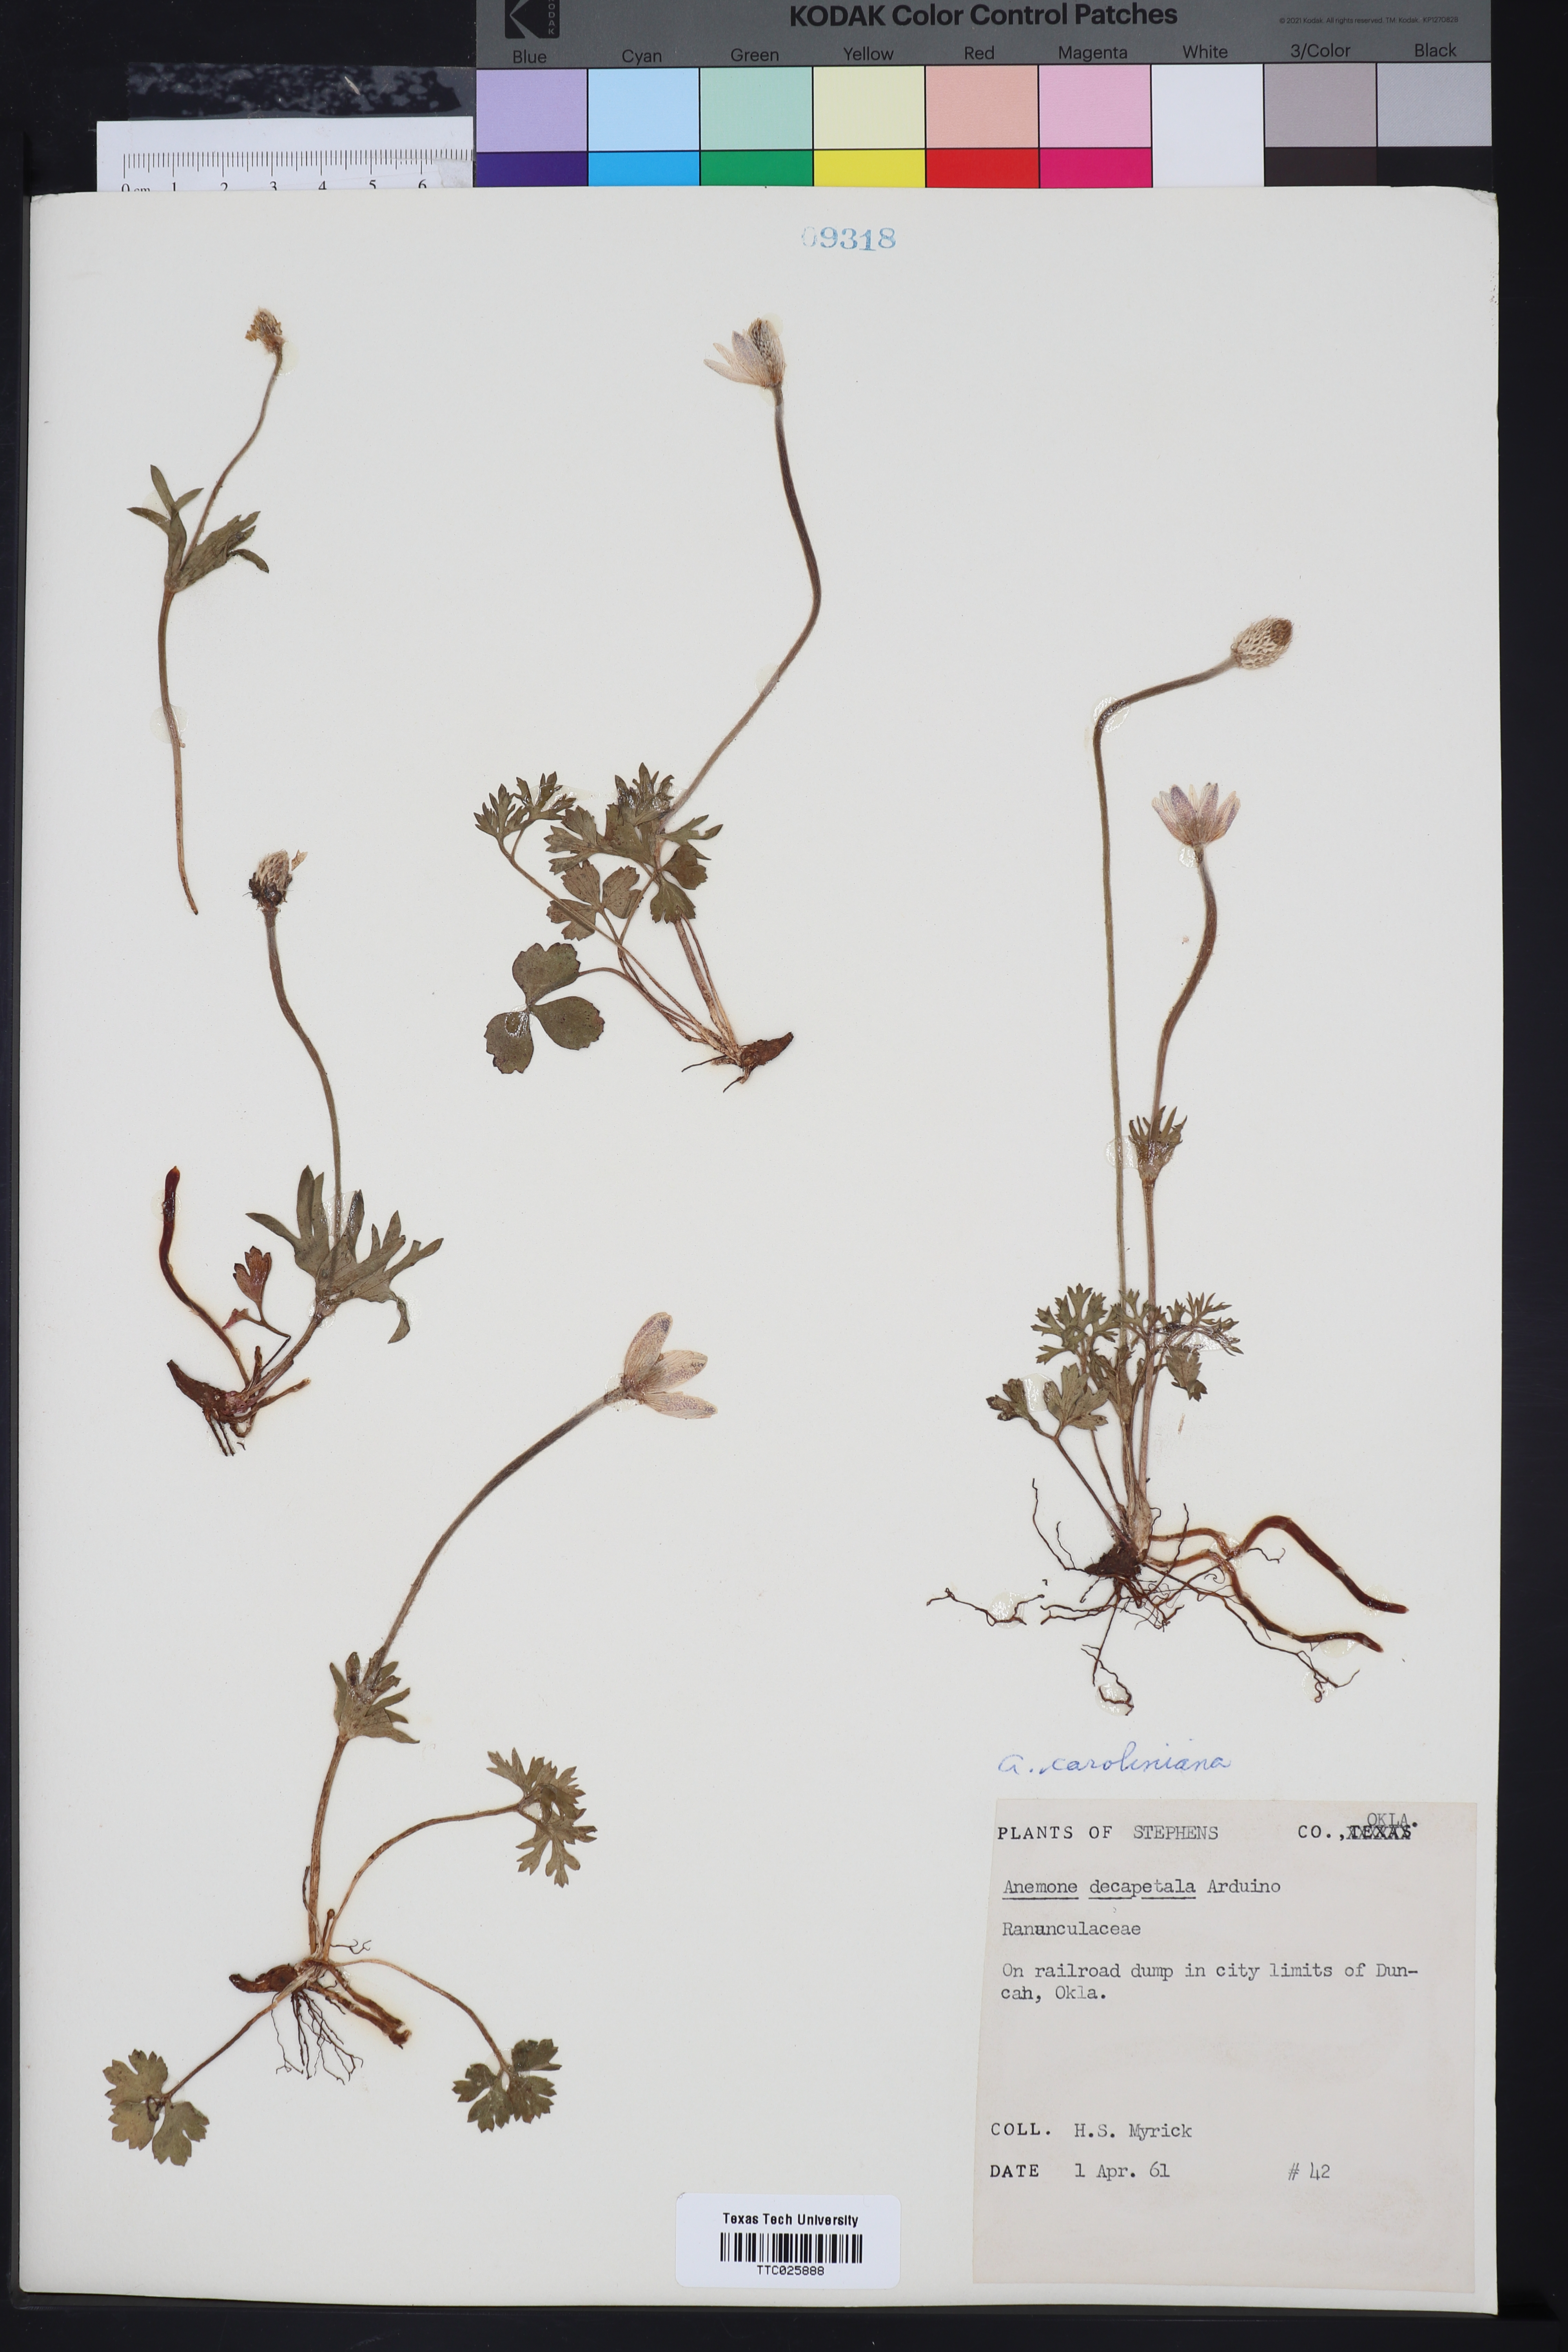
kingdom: Plantae
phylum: Tracheophyta
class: Magnoliopsida
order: Ranunculales
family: Ranunculaceae
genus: Anemone
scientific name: Anemone caroliniana
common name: Carolina anemone
